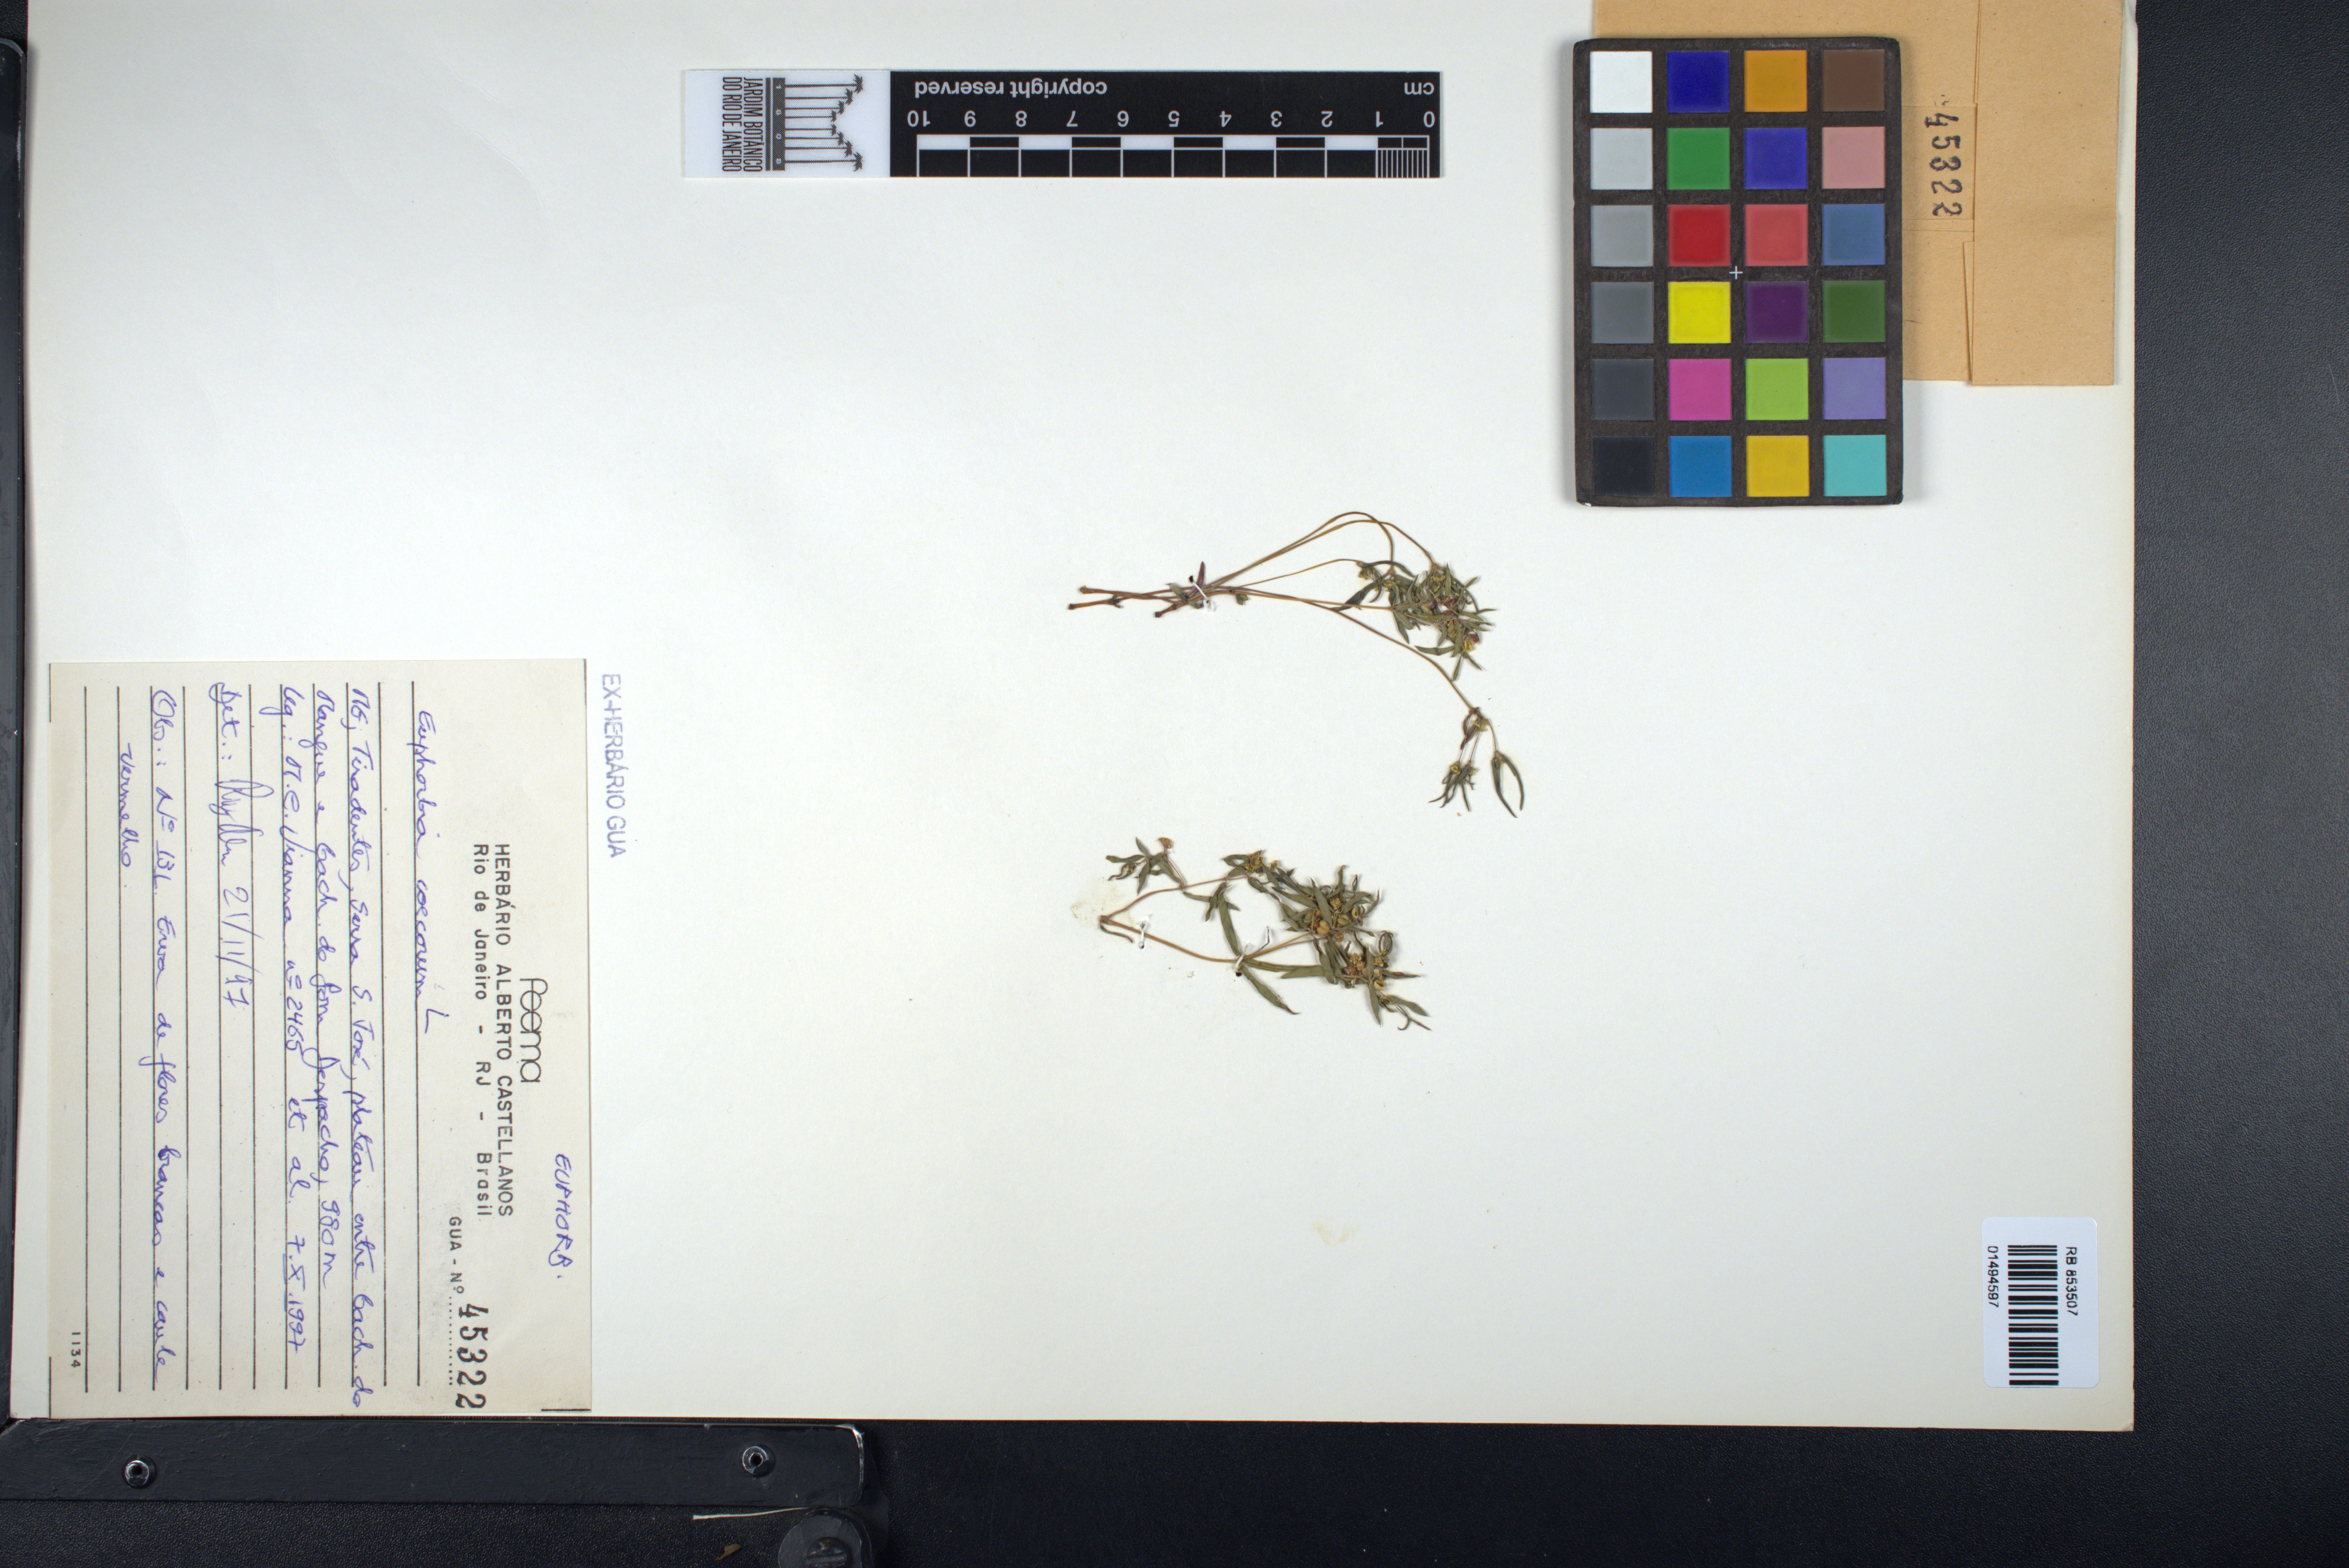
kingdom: Plantae
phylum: Tracheophyta
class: Magnoliopsida
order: Malpighiales
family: Euphorbiaceae
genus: Euphorbia
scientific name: Euphorbia potentilloides
